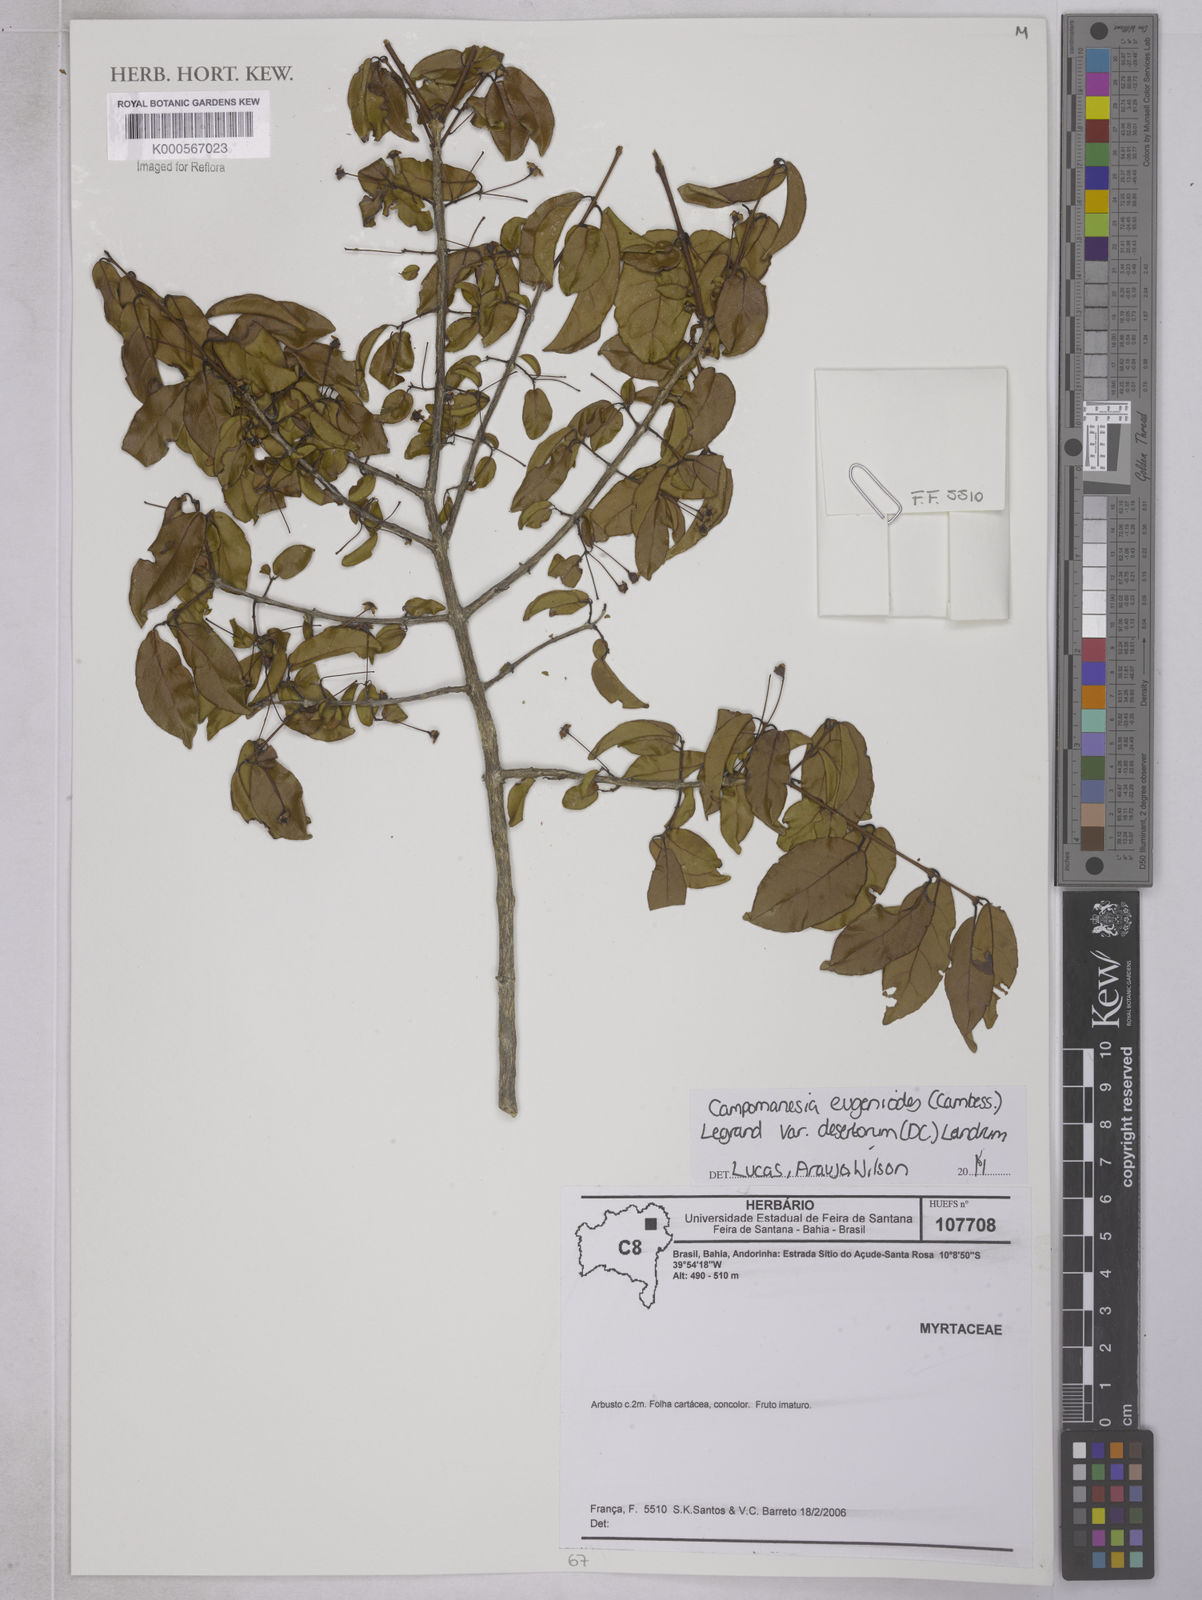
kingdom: Plantae
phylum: Tracheophyta
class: Magnoliopsida
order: Myrtales
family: Myrtaceae
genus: Campomanesia
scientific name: Campomanesia eugenioides
